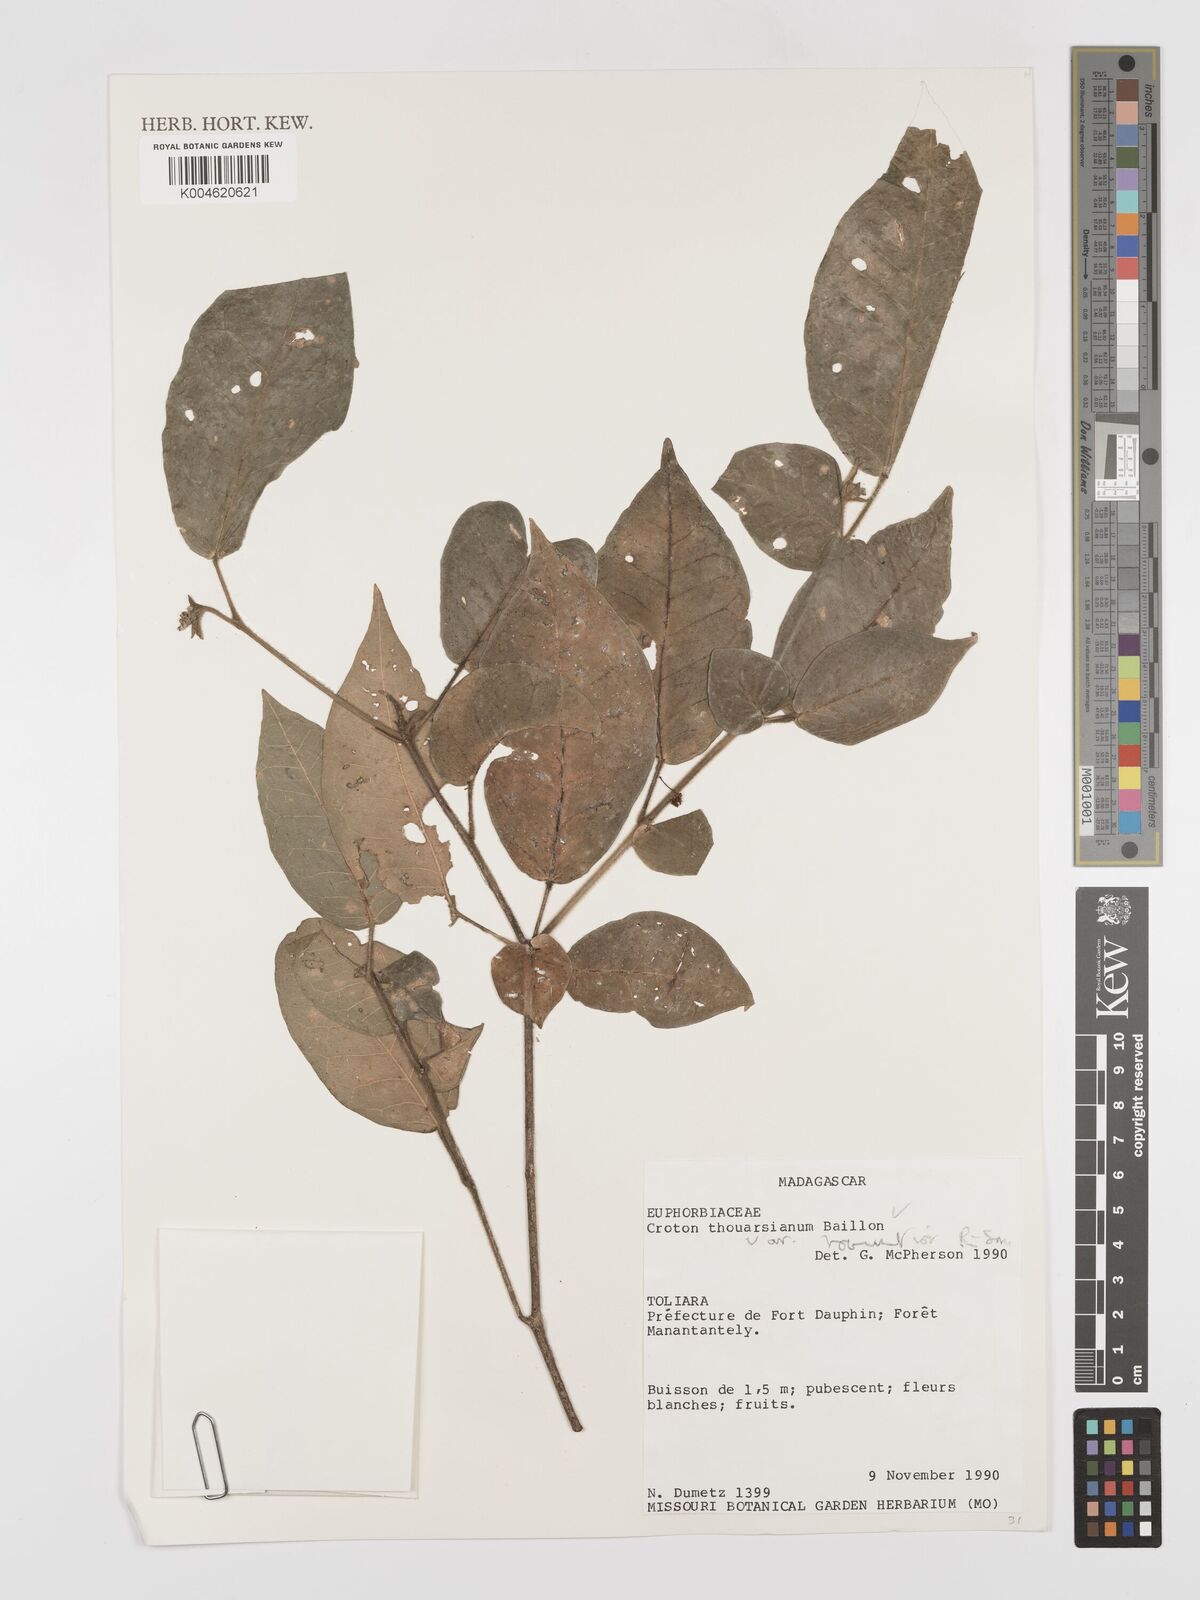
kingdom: Plantae
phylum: Tracheophyta
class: Magnoliopsida
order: Malpighiales
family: Euphorbiaceae
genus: Croton
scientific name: Croton thouarsianus
